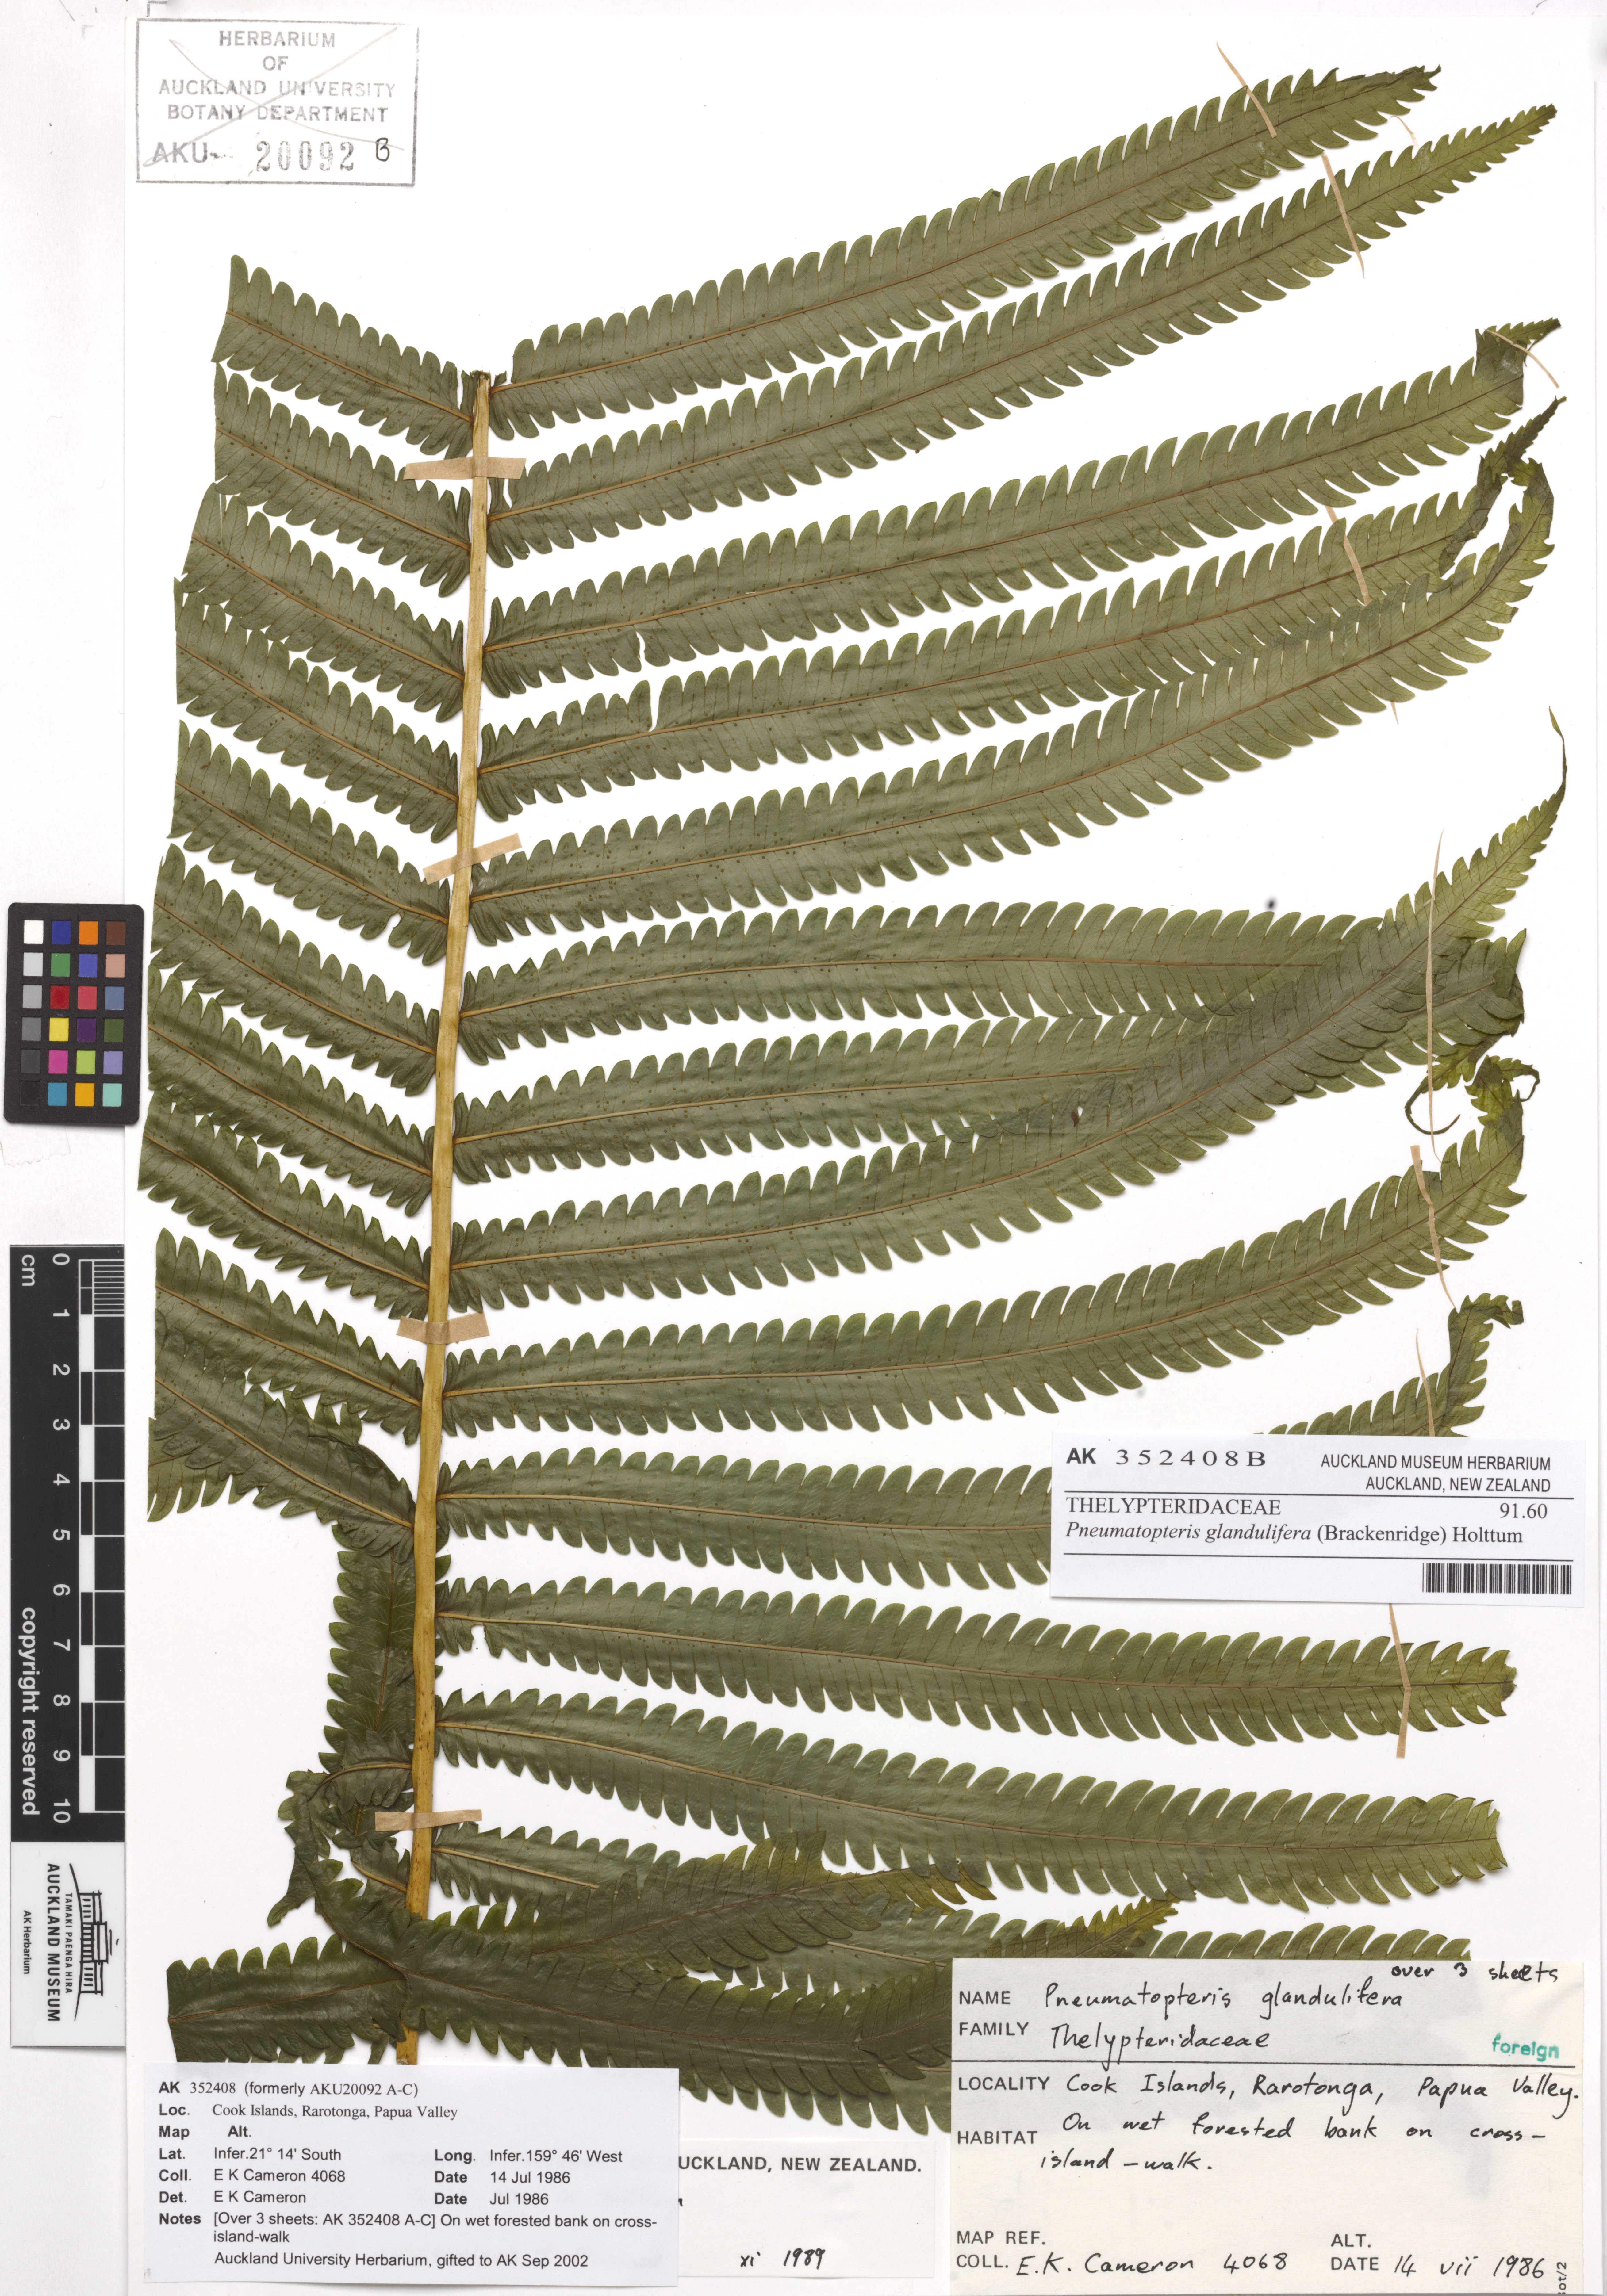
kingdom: Plantae
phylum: Tracheophyta
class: Polypodiopsida
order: Polypodiales
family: Thelypteridaceae
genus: Pneumatopteris
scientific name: Pneumatopteris glandulifera
